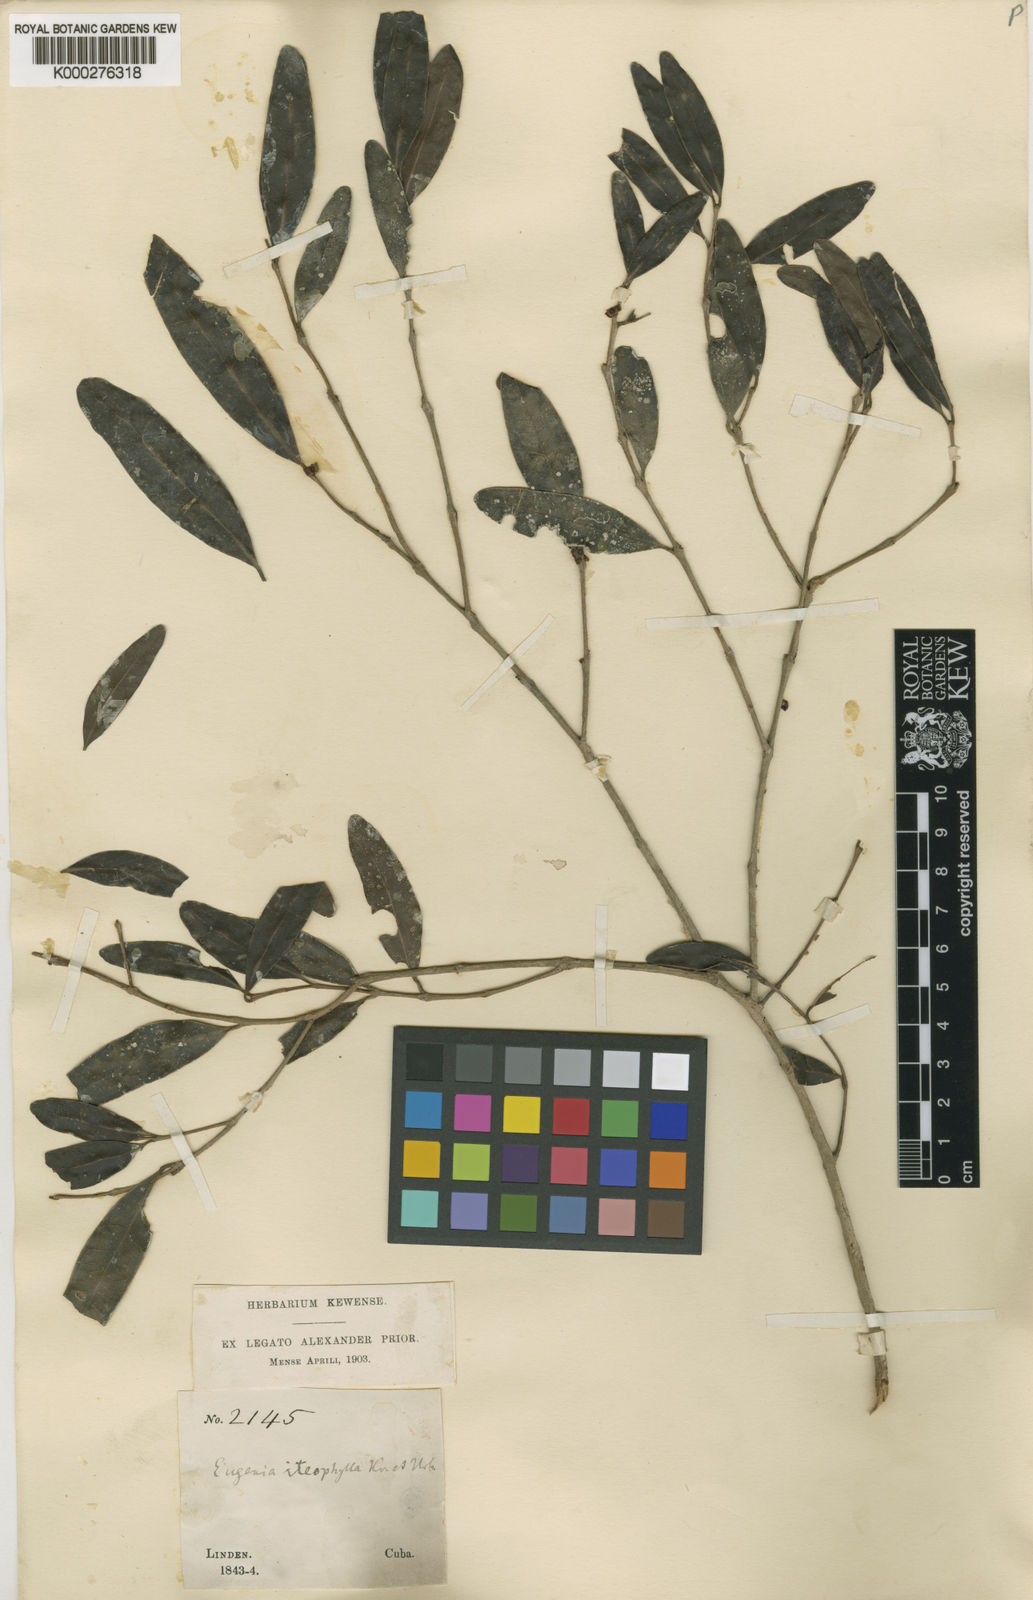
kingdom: Plantae
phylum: Tracheophyta
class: Magnoliopsida
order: Myrtales
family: Myrtaceae
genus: Eugenia
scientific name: Eugenia iteophylla
